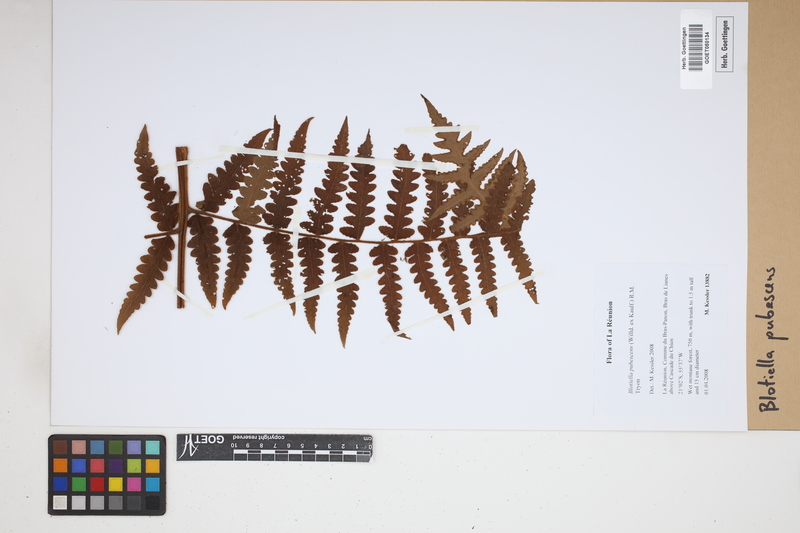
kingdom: Plantae
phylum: Tracheophyta
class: Polypodiopsida
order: Polypodiales
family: Dennstaedtiaceae
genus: Blotiella
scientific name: Blotiella pubescens
